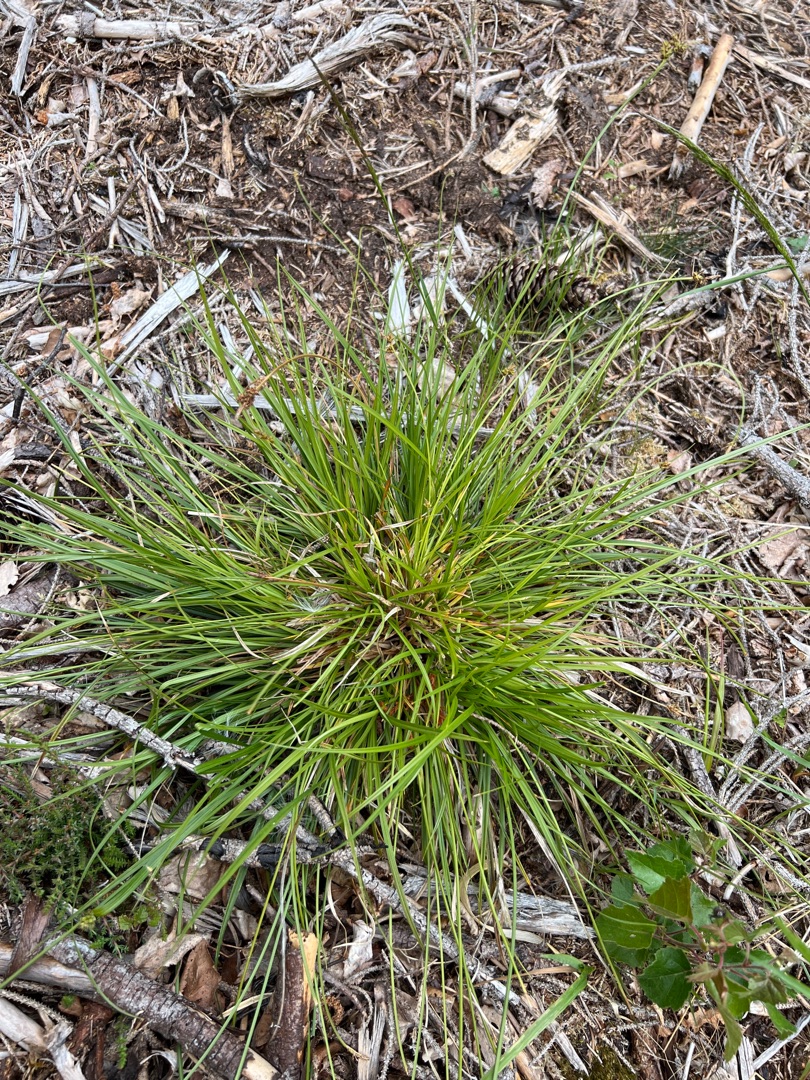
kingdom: Plantae
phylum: Tracheophyta
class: Liliopsida
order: Poales
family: Cyperaceae
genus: Carex
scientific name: Carex pilulifera
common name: Pille-star
